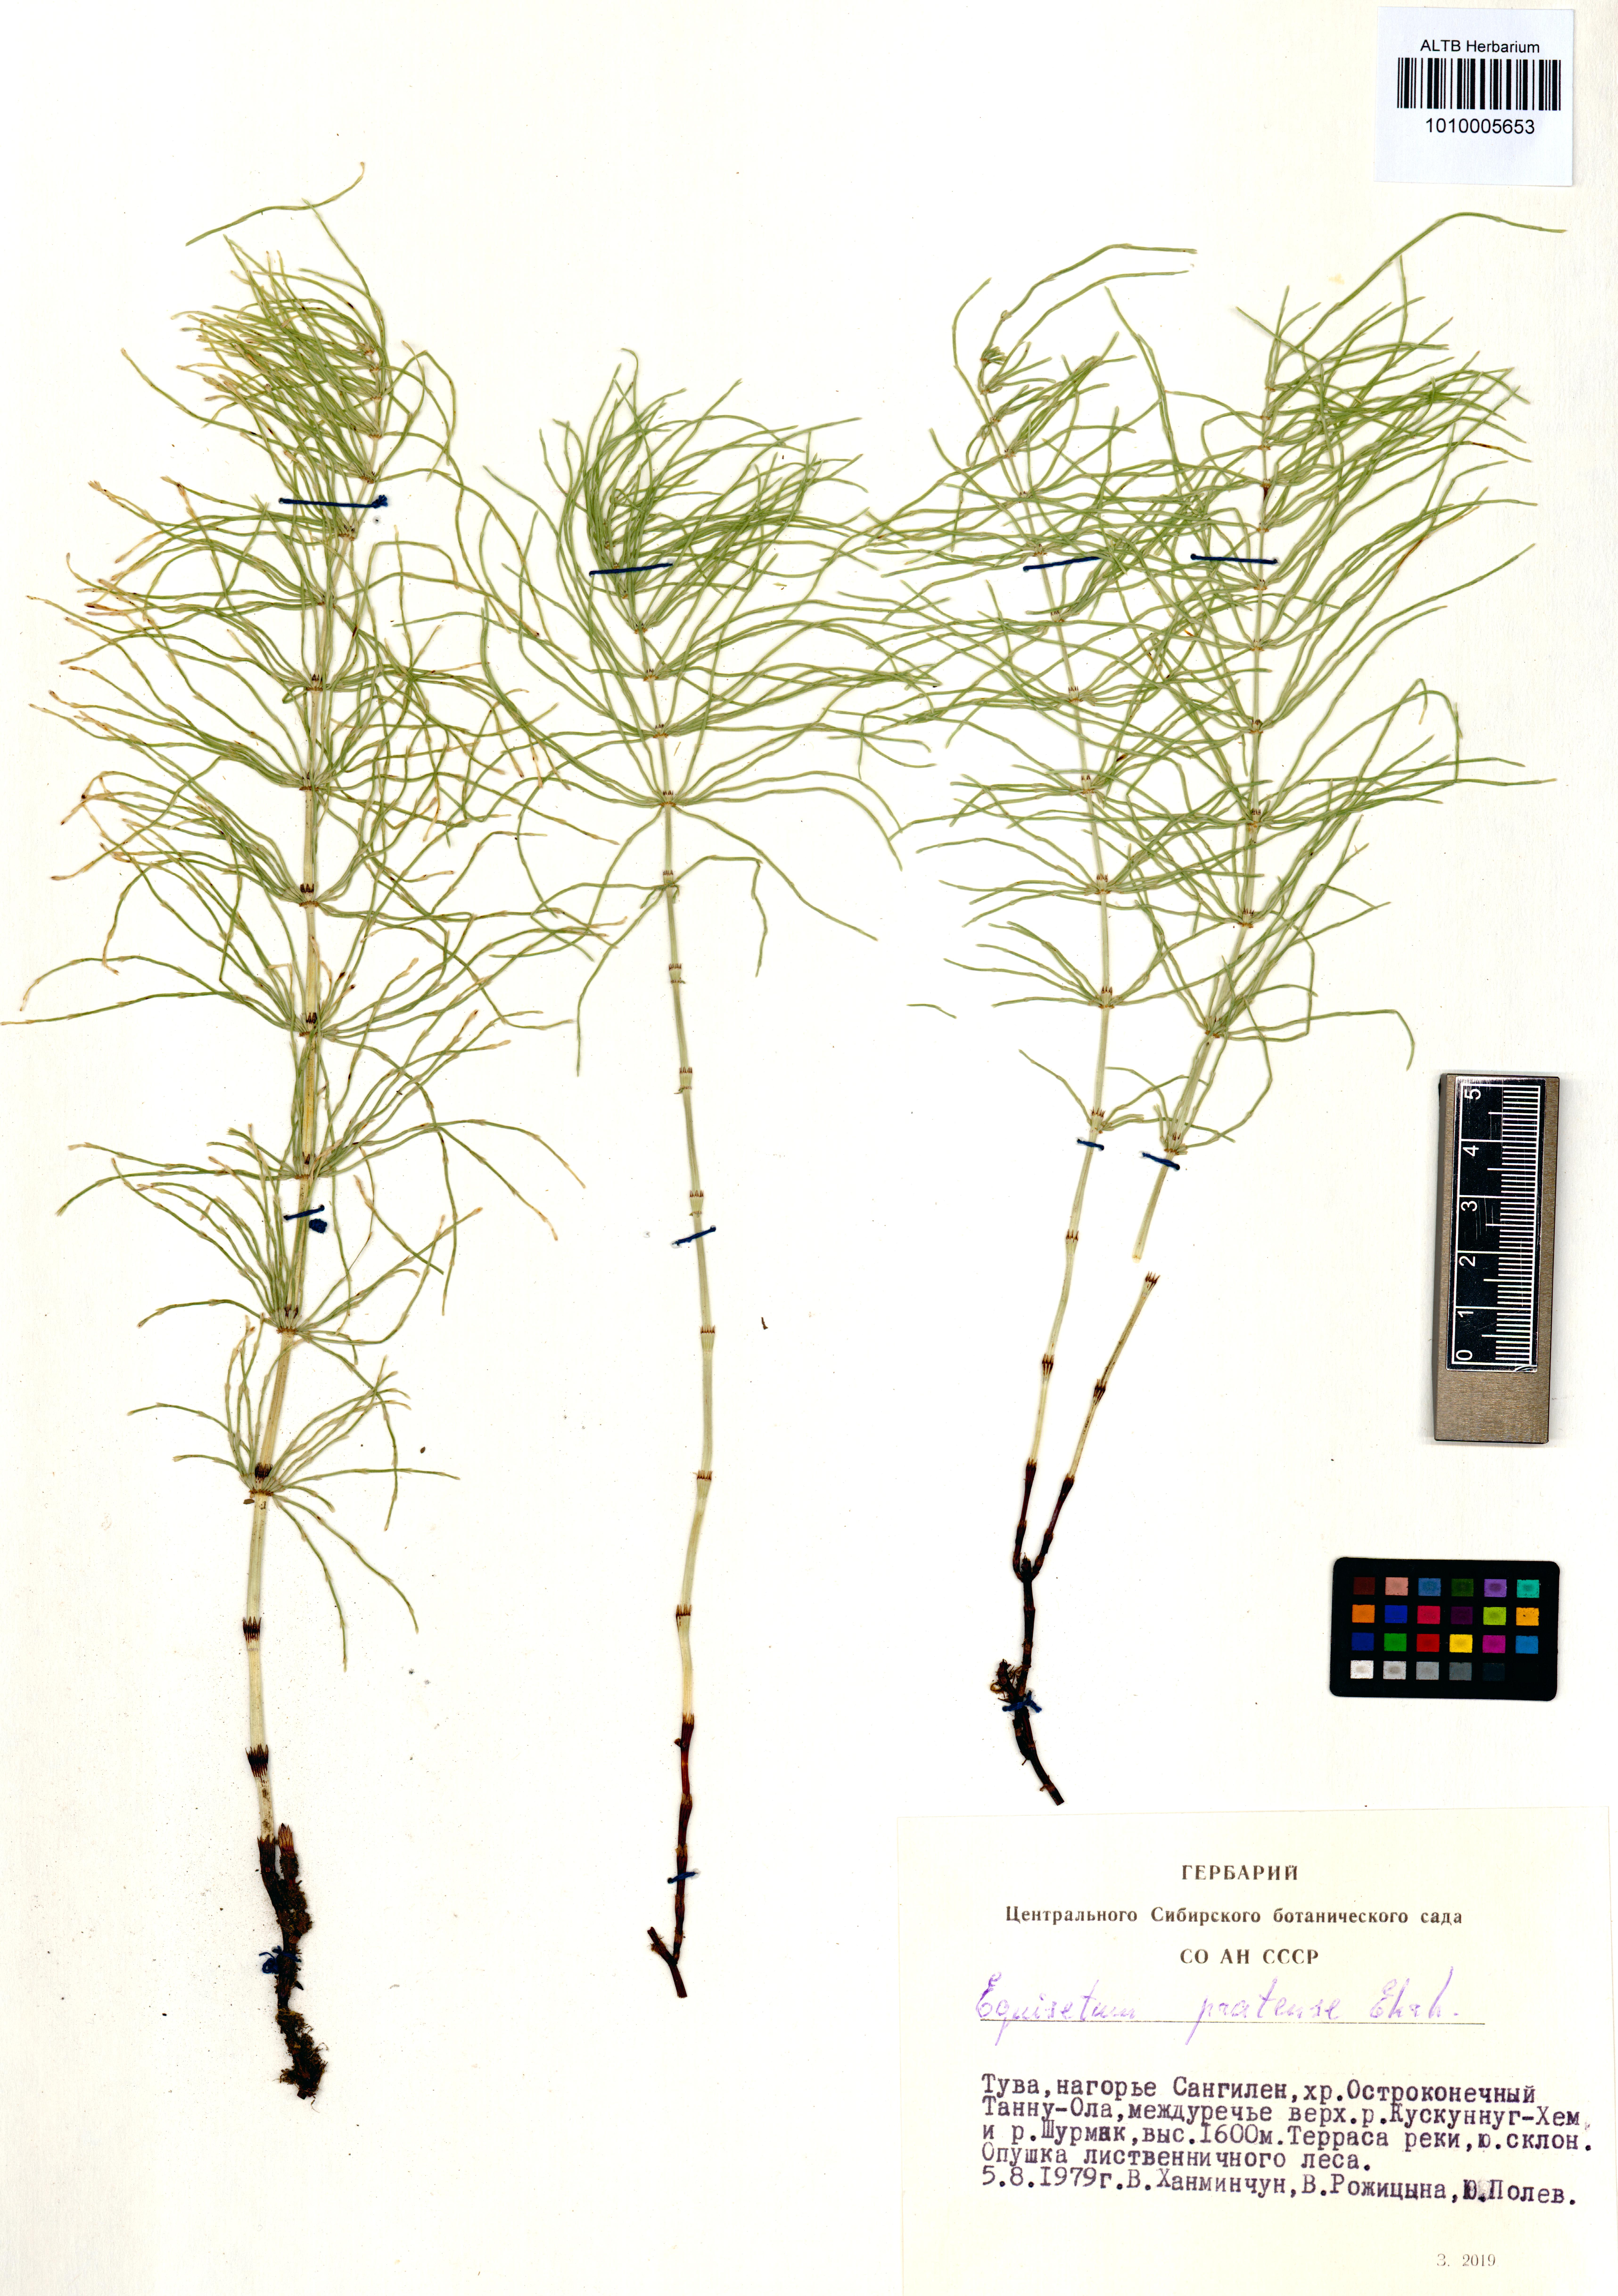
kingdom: Plantae
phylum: Tracheophyta
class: Polypodiopsida
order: Equisetales
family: Equisetaceae
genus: Equisetum
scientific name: Equisetum pratense
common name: Meadow horsetail
